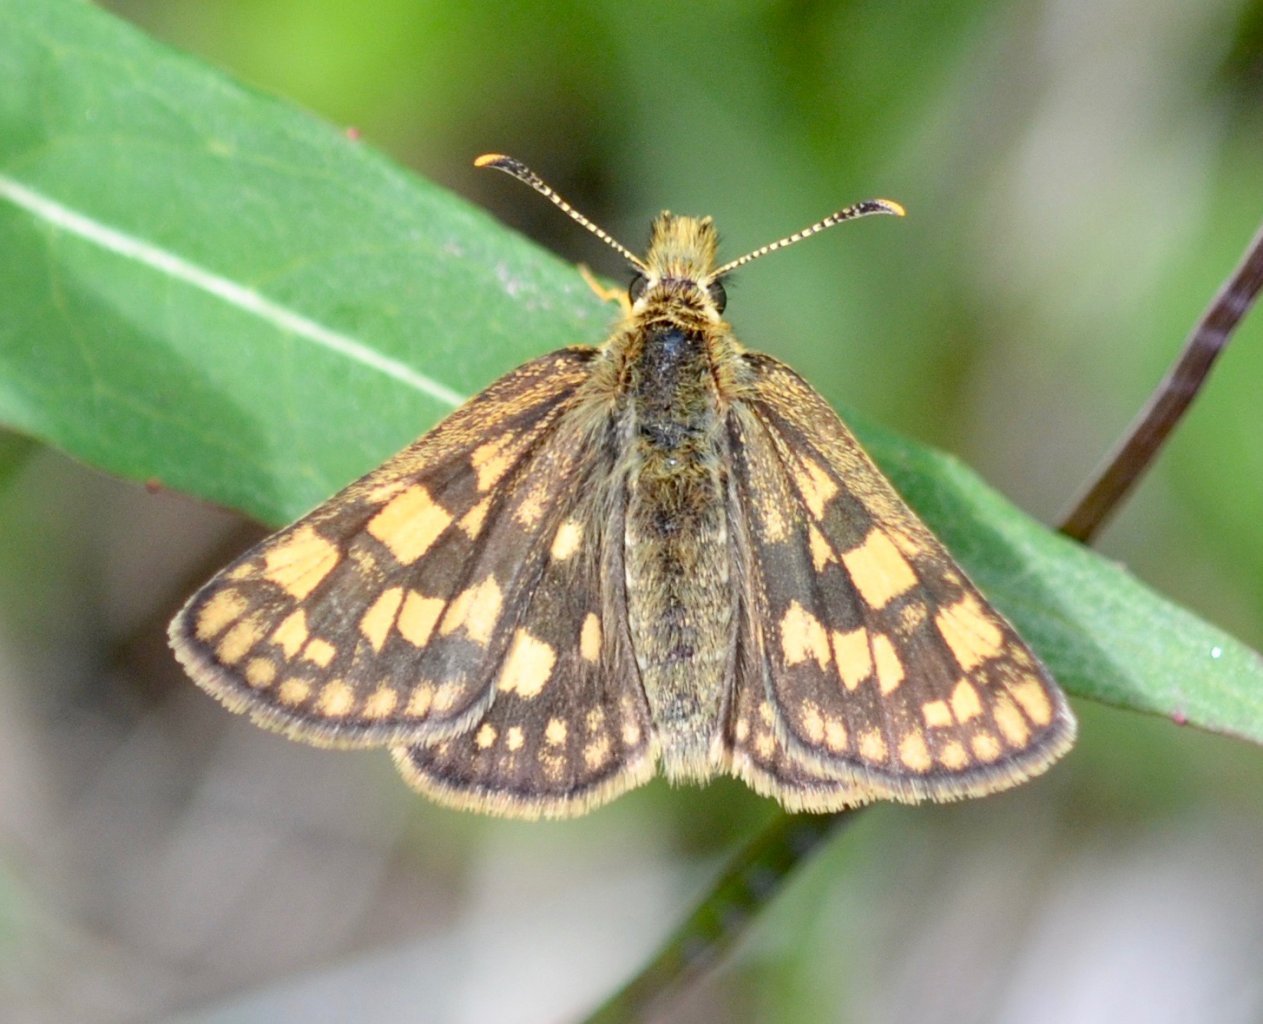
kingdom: Animalia
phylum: Arthropoda
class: Insecta
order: Lepidoptera
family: Hesperiidae
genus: Carterocephalus
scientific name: Carterocephalus palaemon
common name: Chequered Skipper
